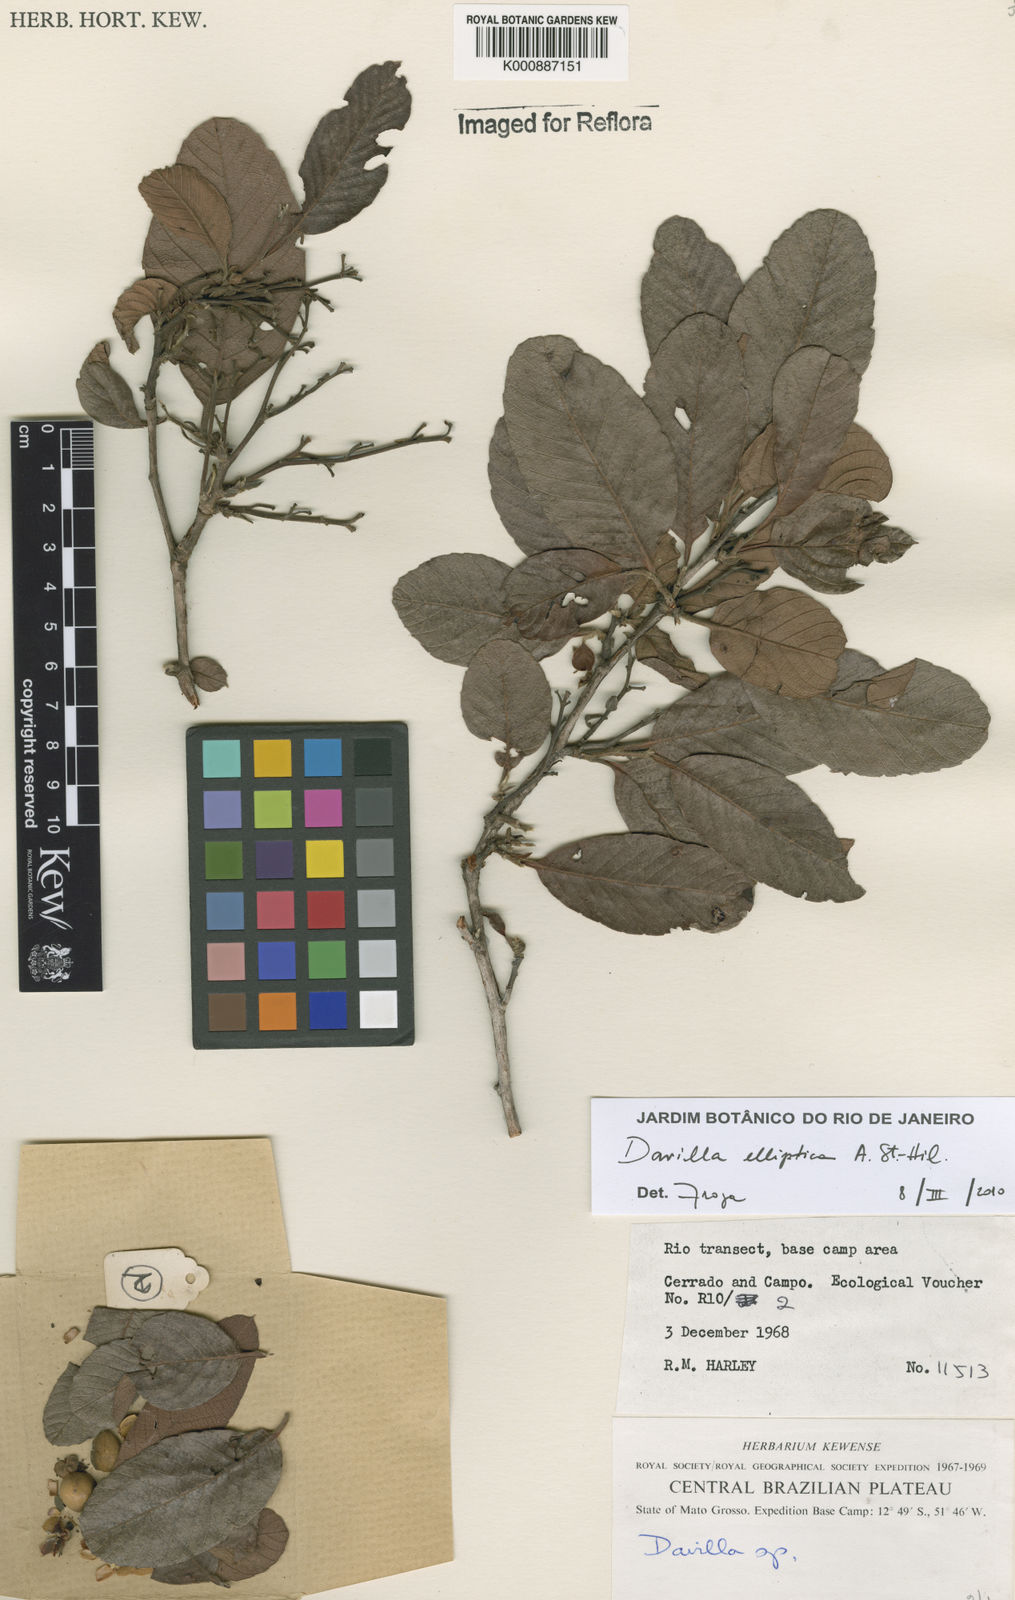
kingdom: Plantae
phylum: Tracheophyta
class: Magnoliopsida
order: Dilleniales
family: Dilleniaceae
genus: Davilla
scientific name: Davilla elliptica
